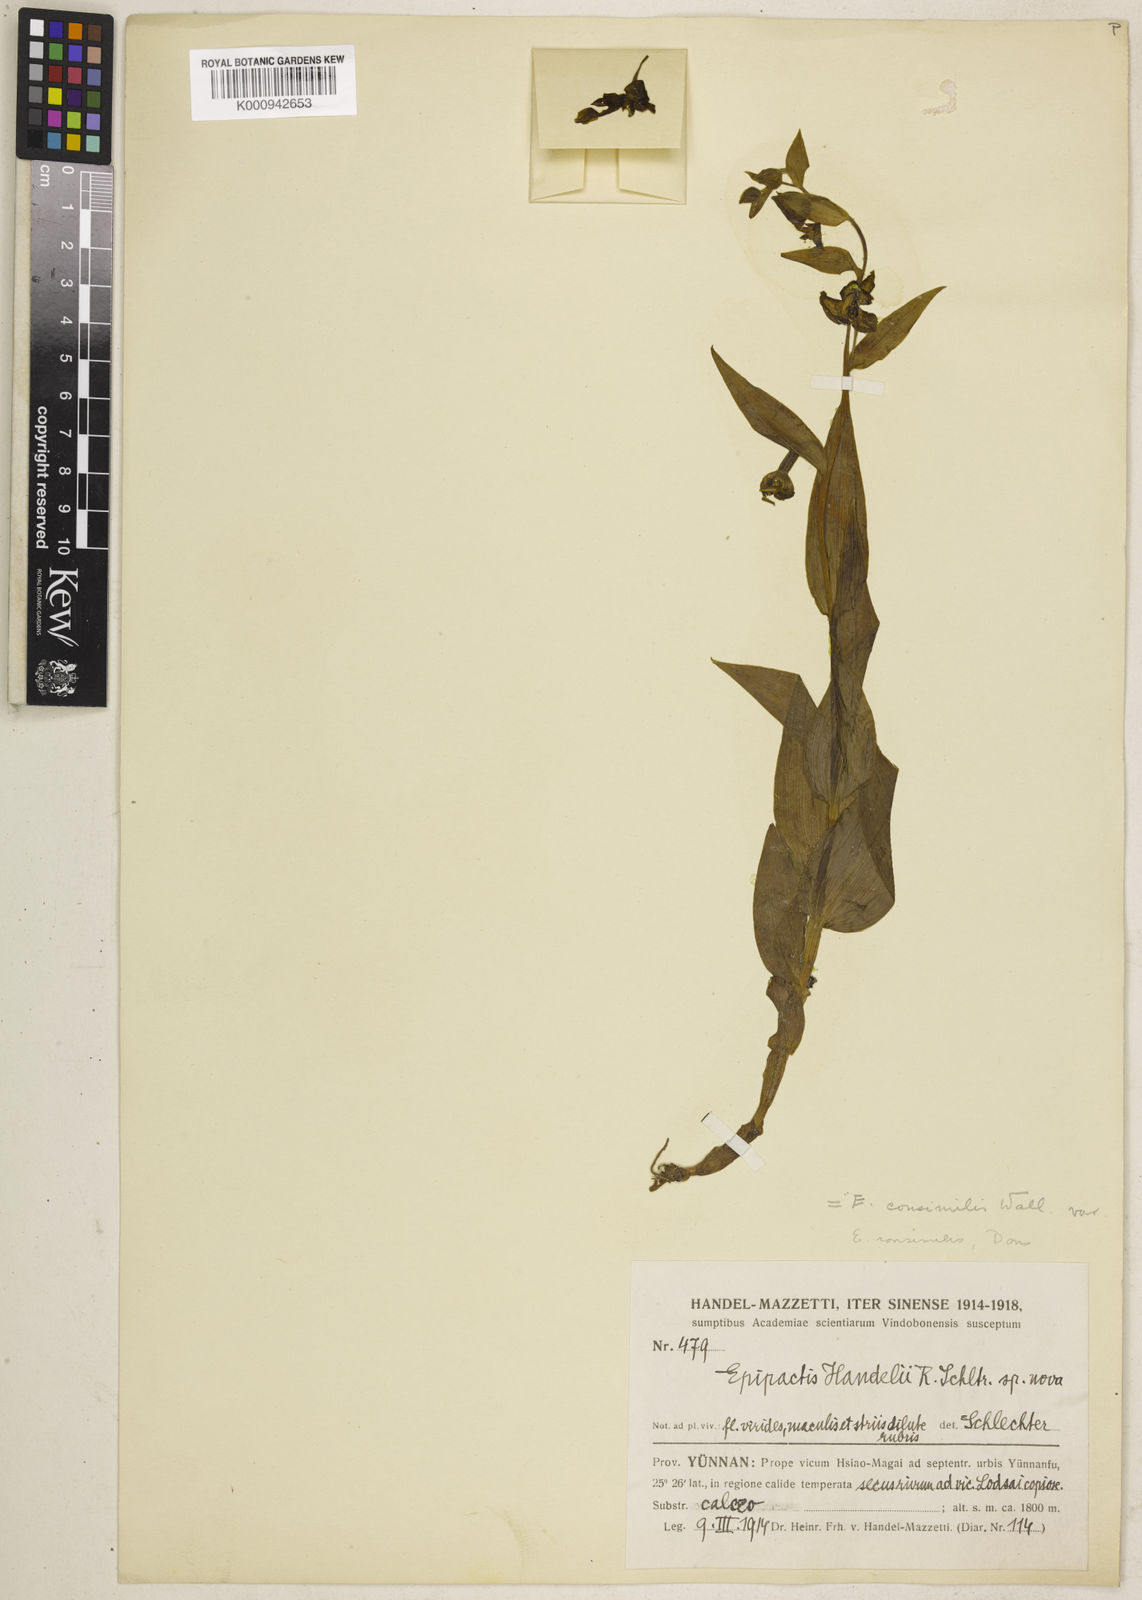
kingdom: Plantae
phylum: Tracheophyta
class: Liliopsida
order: Asparagales
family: Orchidaceae
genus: Epipactis
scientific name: Epipactis veratrifolia
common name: Eastern marsh helleborine
